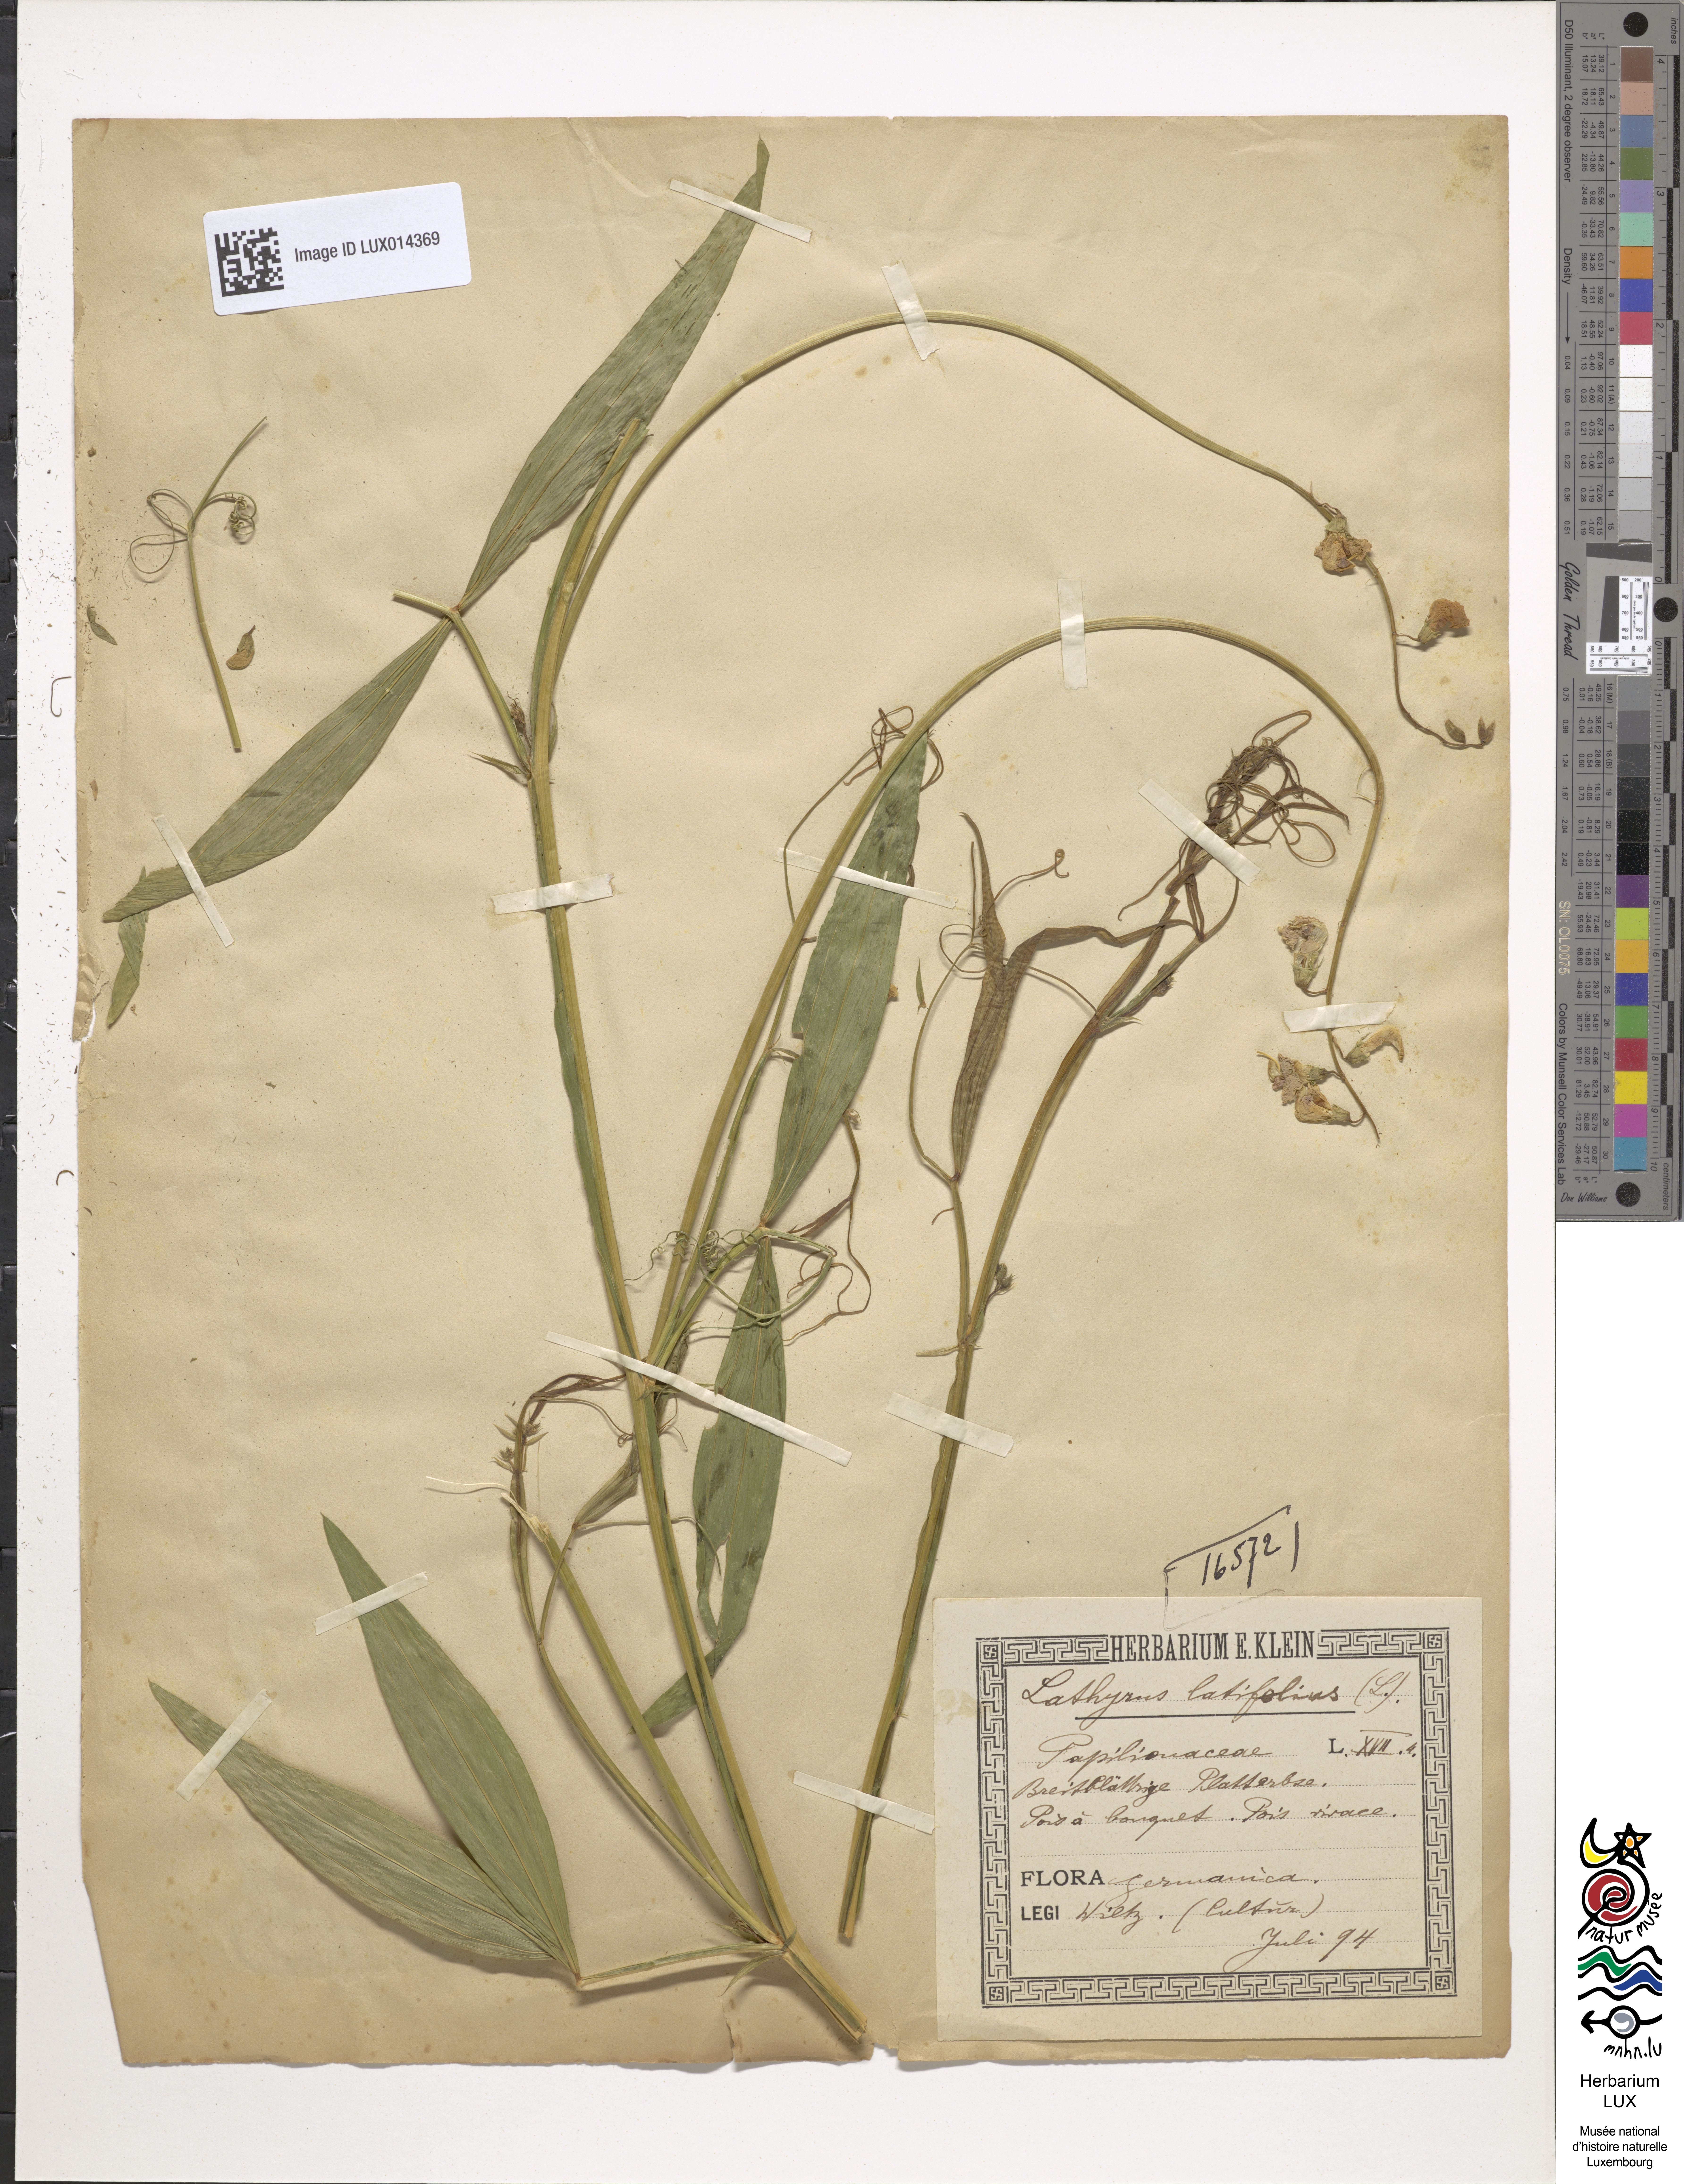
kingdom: Plantae
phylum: Tracheophyta
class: Magnoliopsida
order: Fabales
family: Fabaceae
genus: Lathyrus
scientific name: Lathyrus latifolius
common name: Perennial pea
